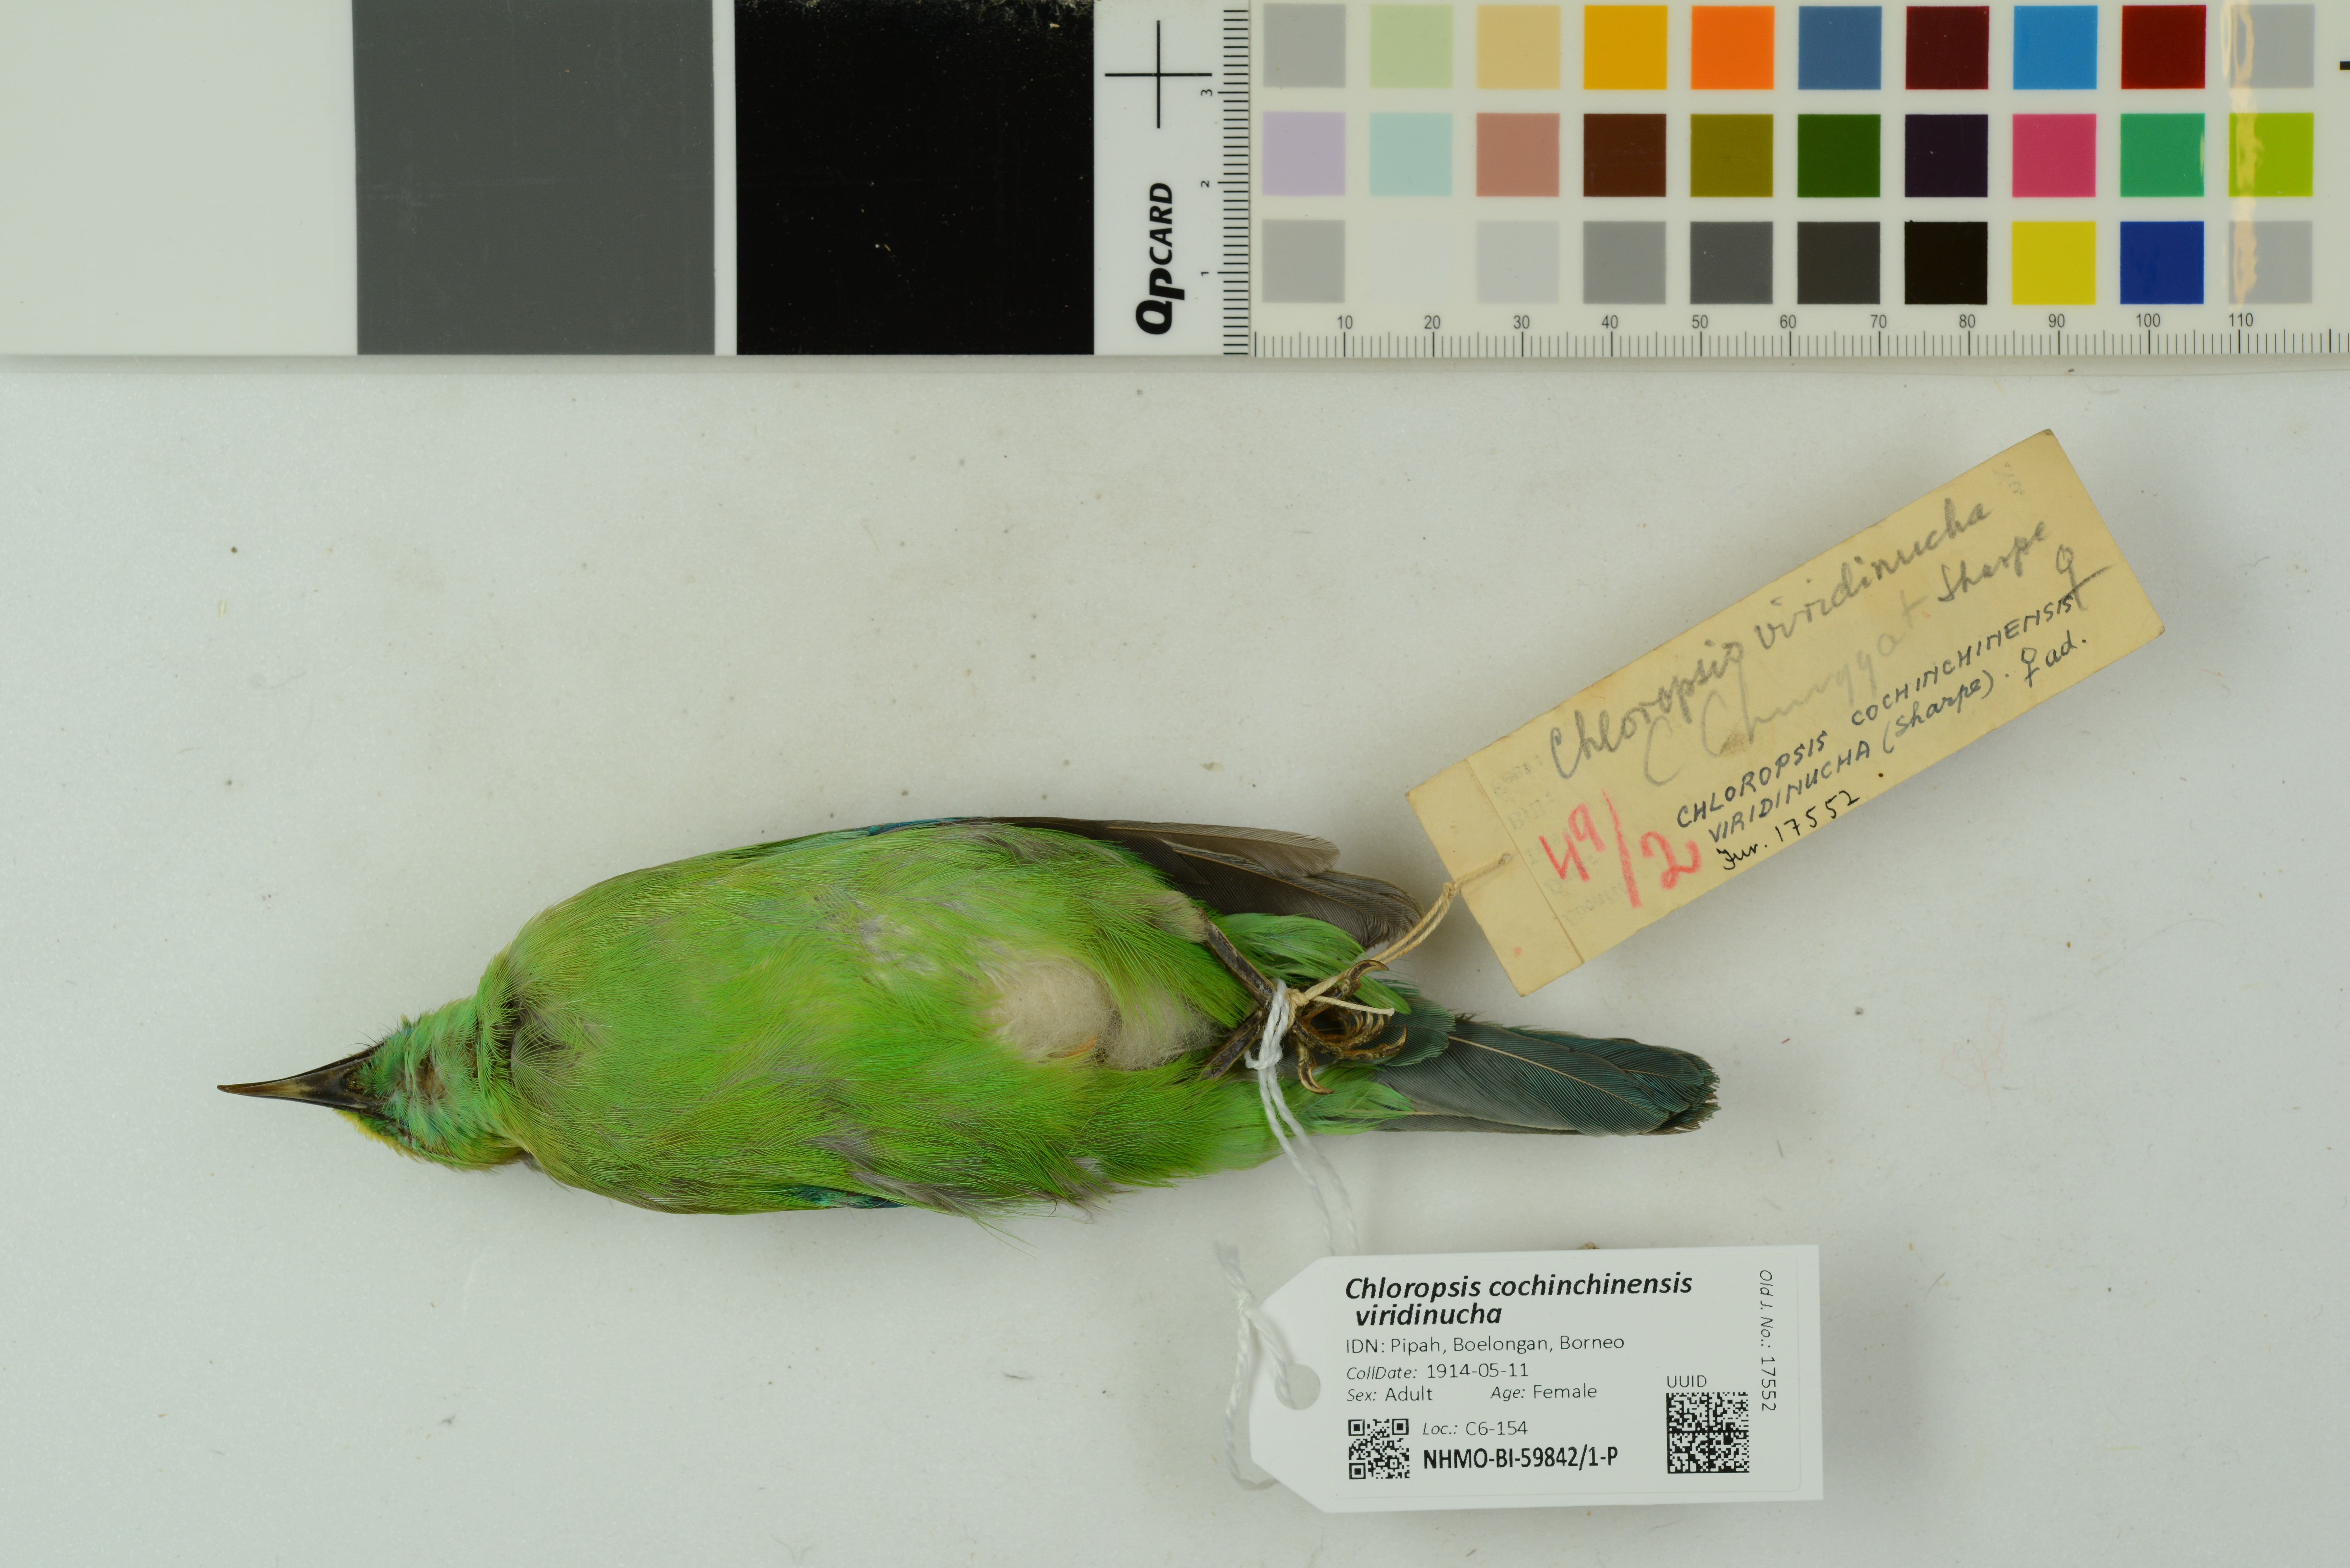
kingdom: Animalia
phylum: Chordata
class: Aves
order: Passeriformes
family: Chloropseidae
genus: Chloropsis
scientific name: Chloropsis cochinchinensis
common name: Blue-winged leafbird
